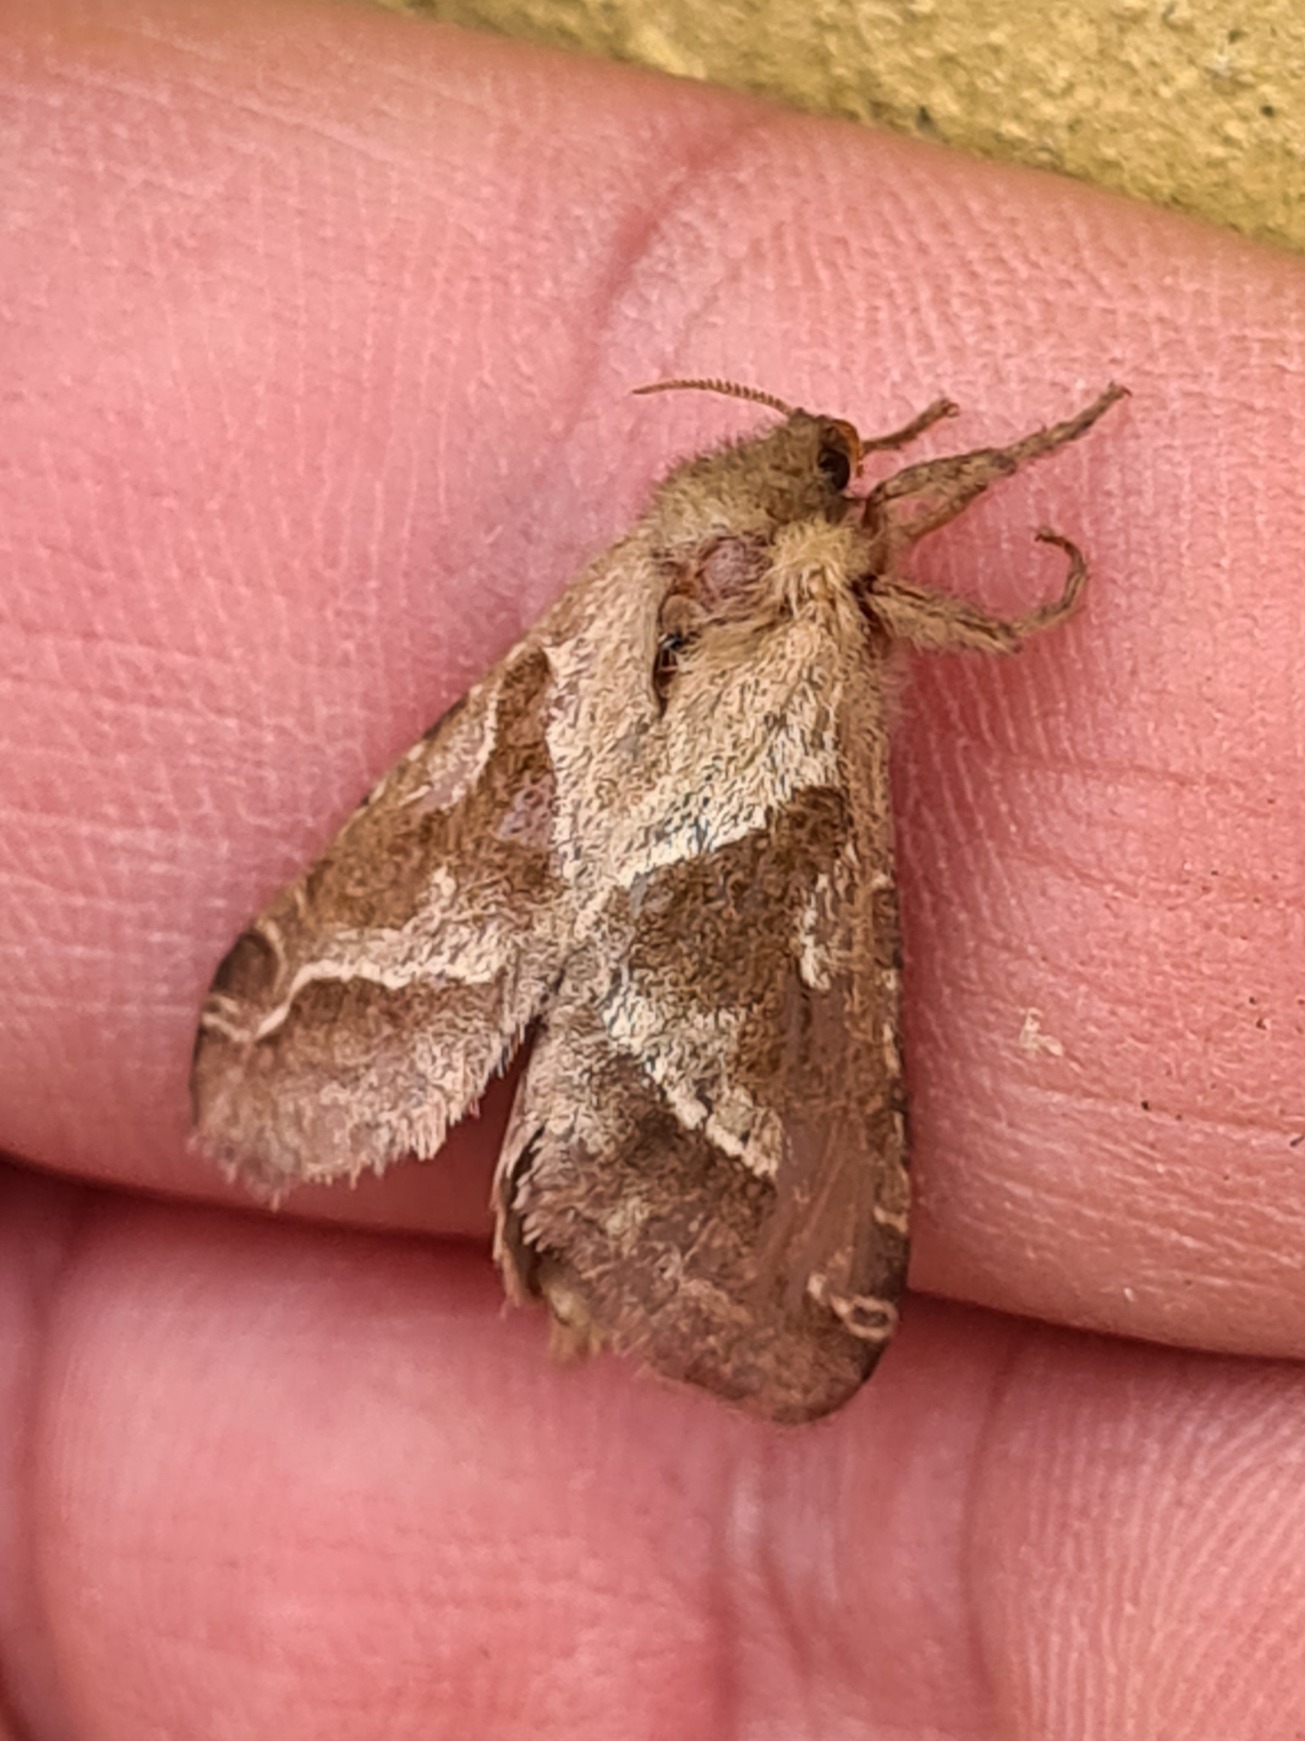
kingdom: Animalia
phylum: Arthropoda
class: Insecta
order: Lepidoptera
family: Hepialidae
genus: Triodia
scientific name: Triodia sylvina
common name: Skræpperodæder
